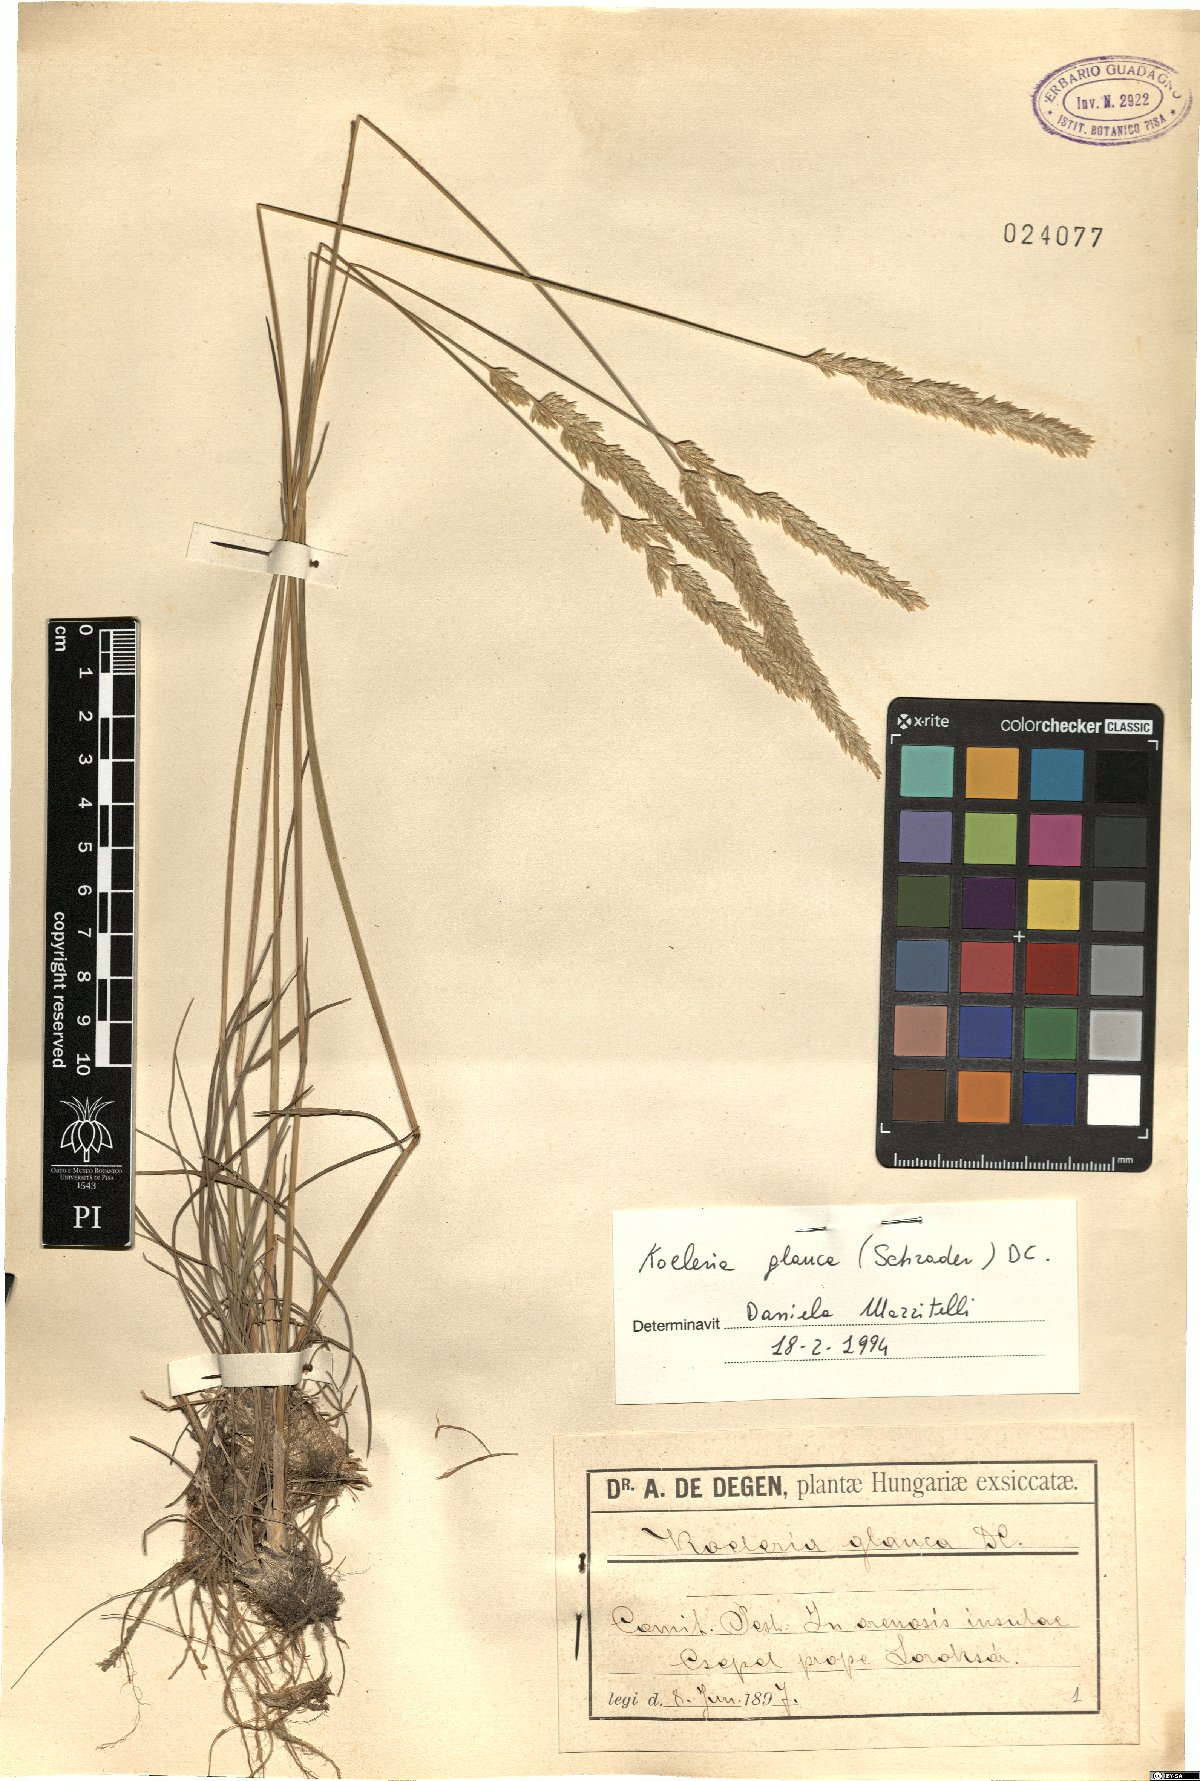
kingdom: Plantae
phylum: Tracheophyta
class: Liliopsida
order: Poales
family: Poaceae
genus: Koeleria
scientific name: Koeleria glauca
